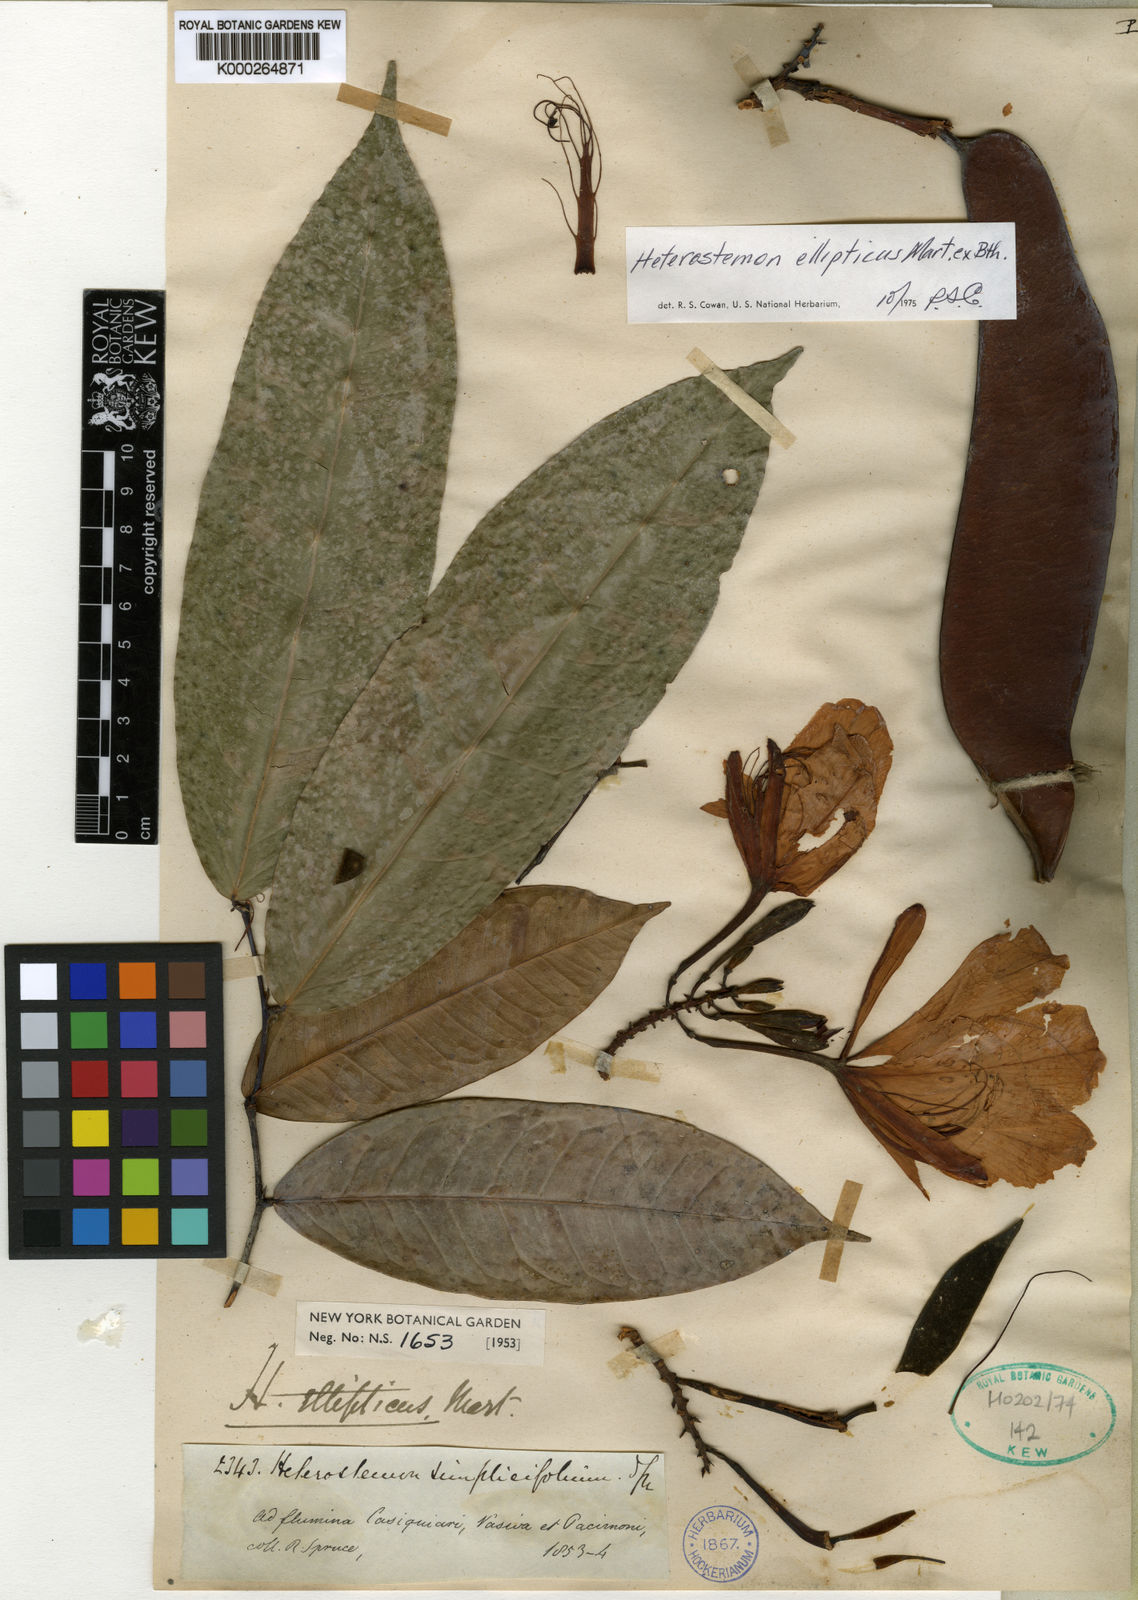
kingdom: Plantae
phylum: Tracheophyta
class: Magnoliopsida
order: Fabales
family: Fabaceae
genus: Heterostemon
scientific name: Heterostemon ellipticus
